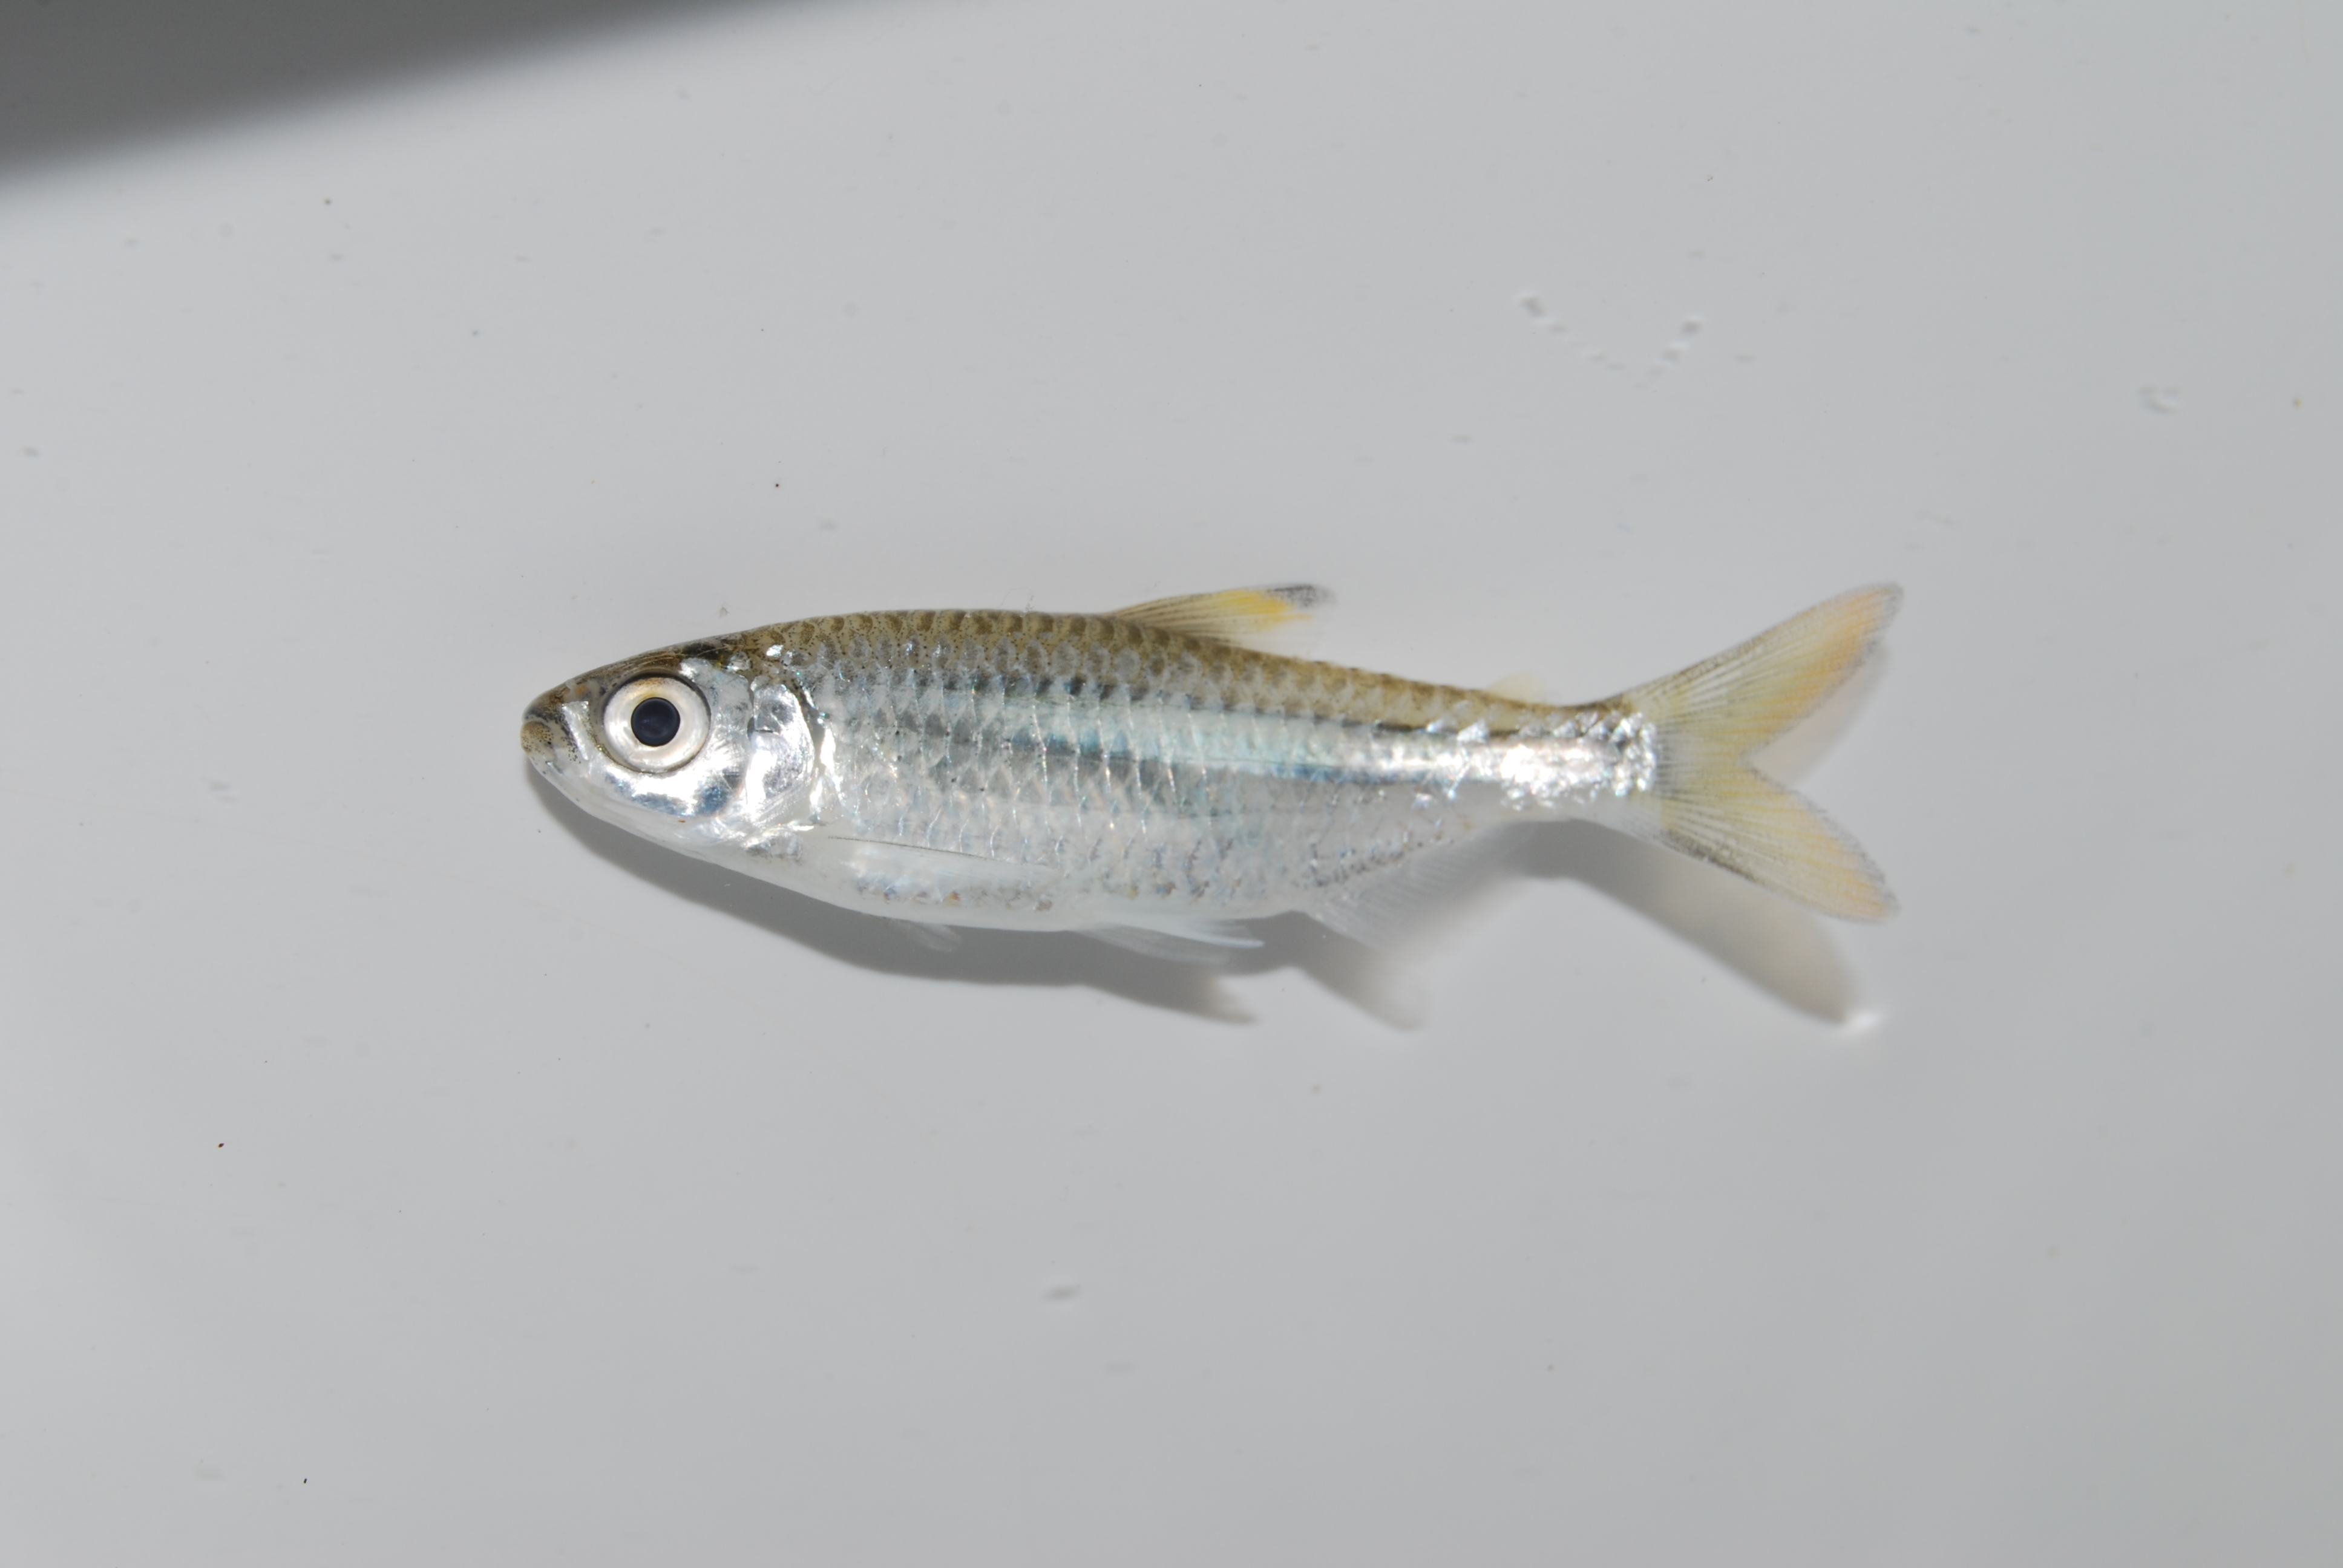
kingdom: Animalia
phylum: Chordata
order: Characiformes
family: Alestidae
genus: Micralestes
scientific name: Micralestes acutidens
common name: Silver robber
